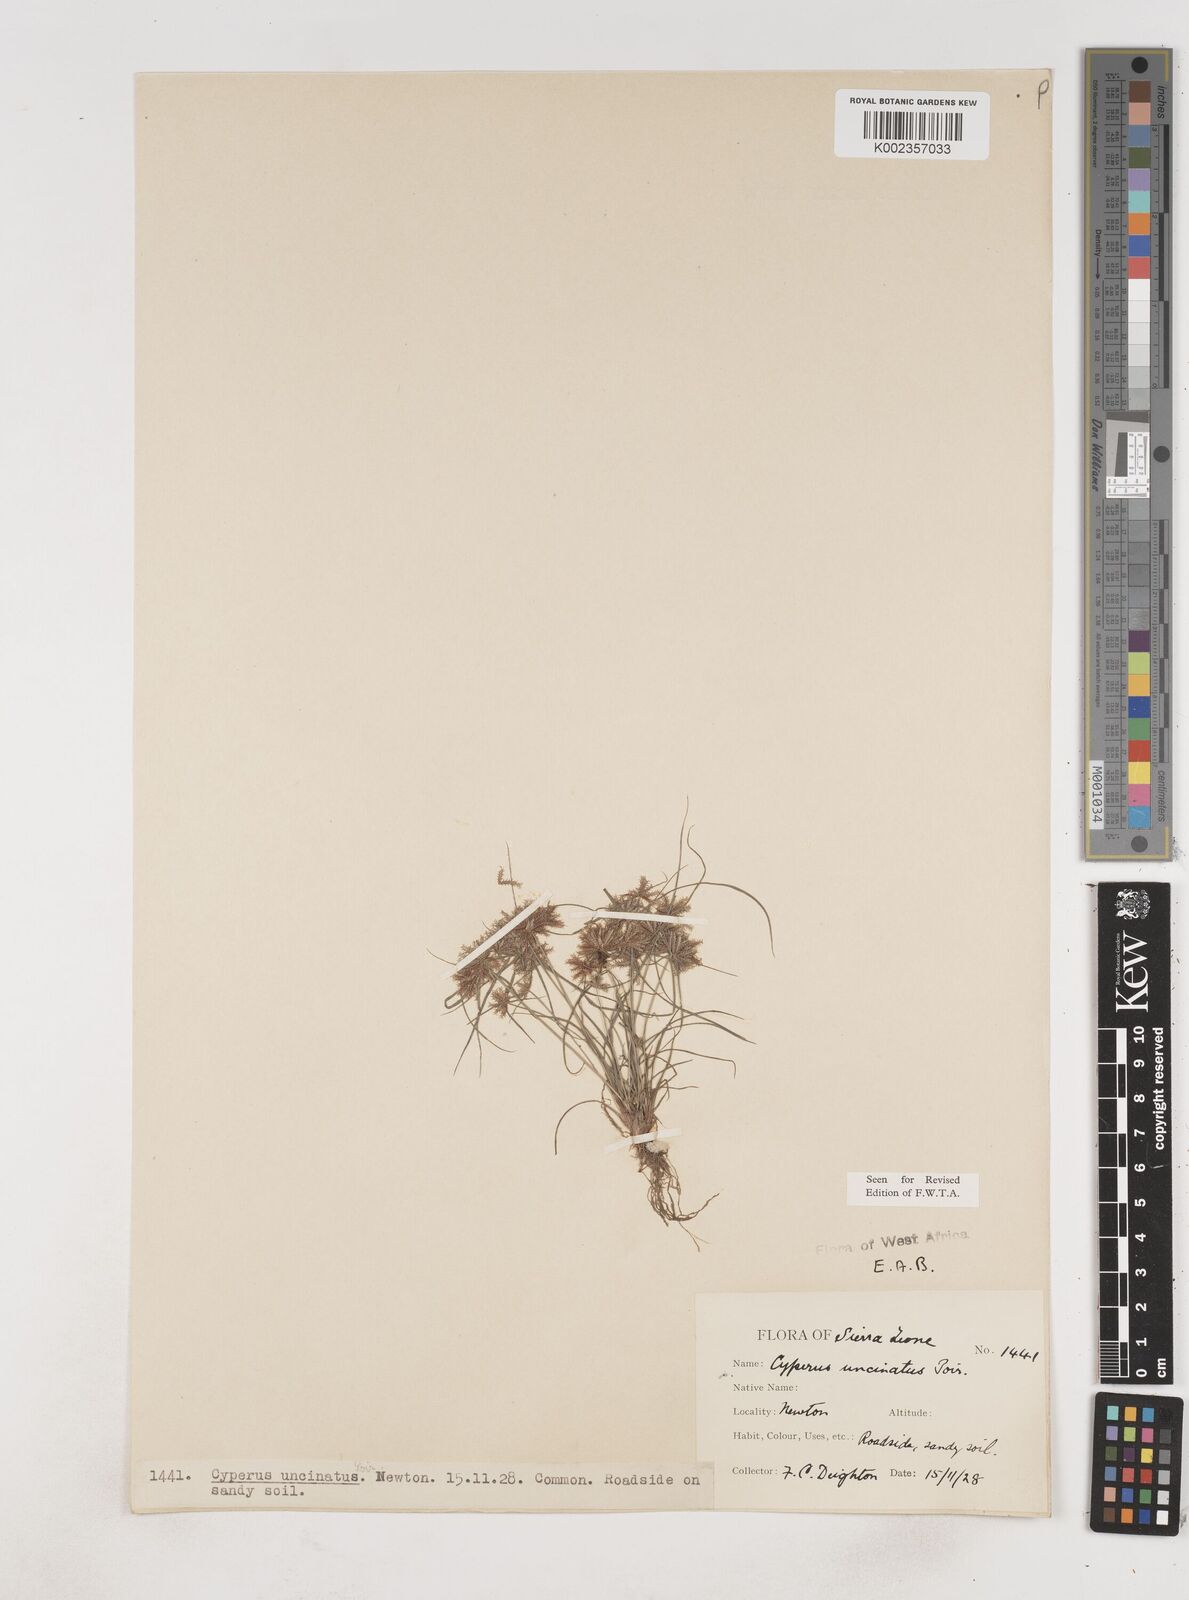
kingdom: Plantae
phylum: Tracheophyta
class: Liliopsida
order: Poales
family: Cyperaceae
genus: Cyperus
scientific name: Cyperus
